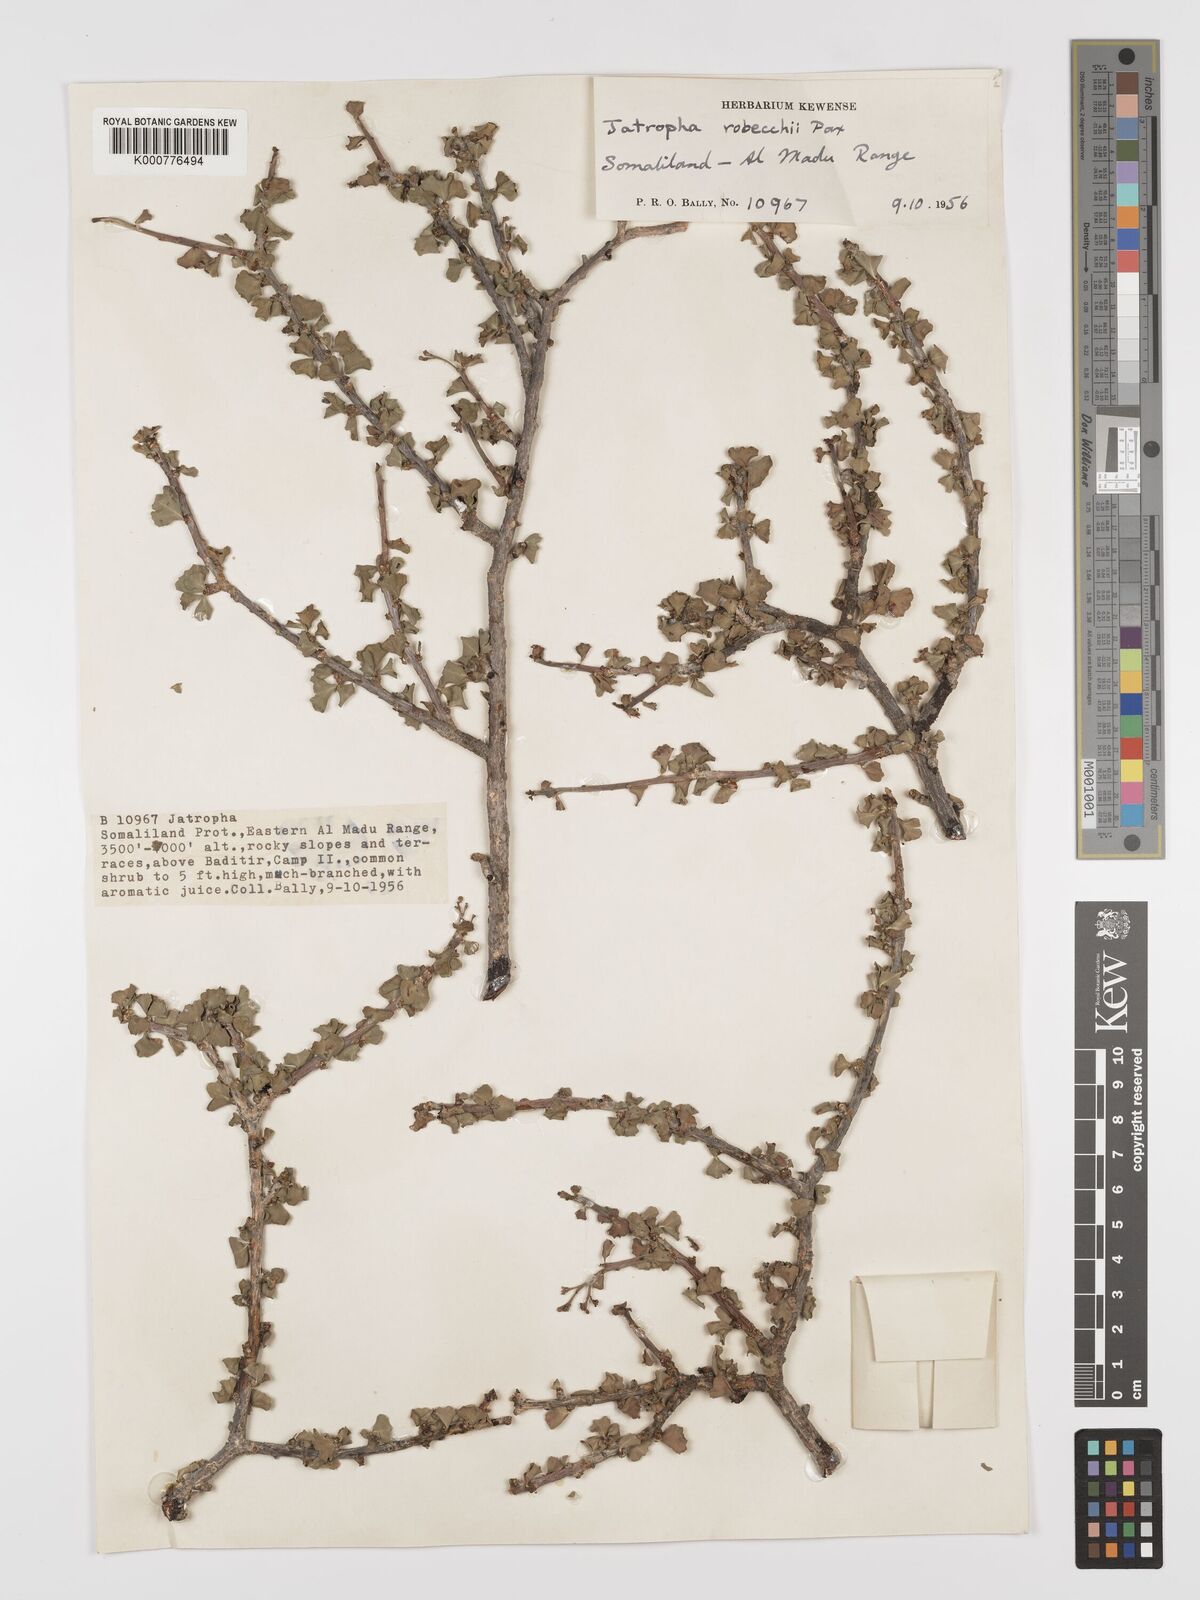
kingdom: Plantae
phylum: Tracheophyta
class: Magnoliopsida
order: Malpighiales
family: Euphorbiaceae
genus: Jatropha
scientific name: Jatropha robecchii
